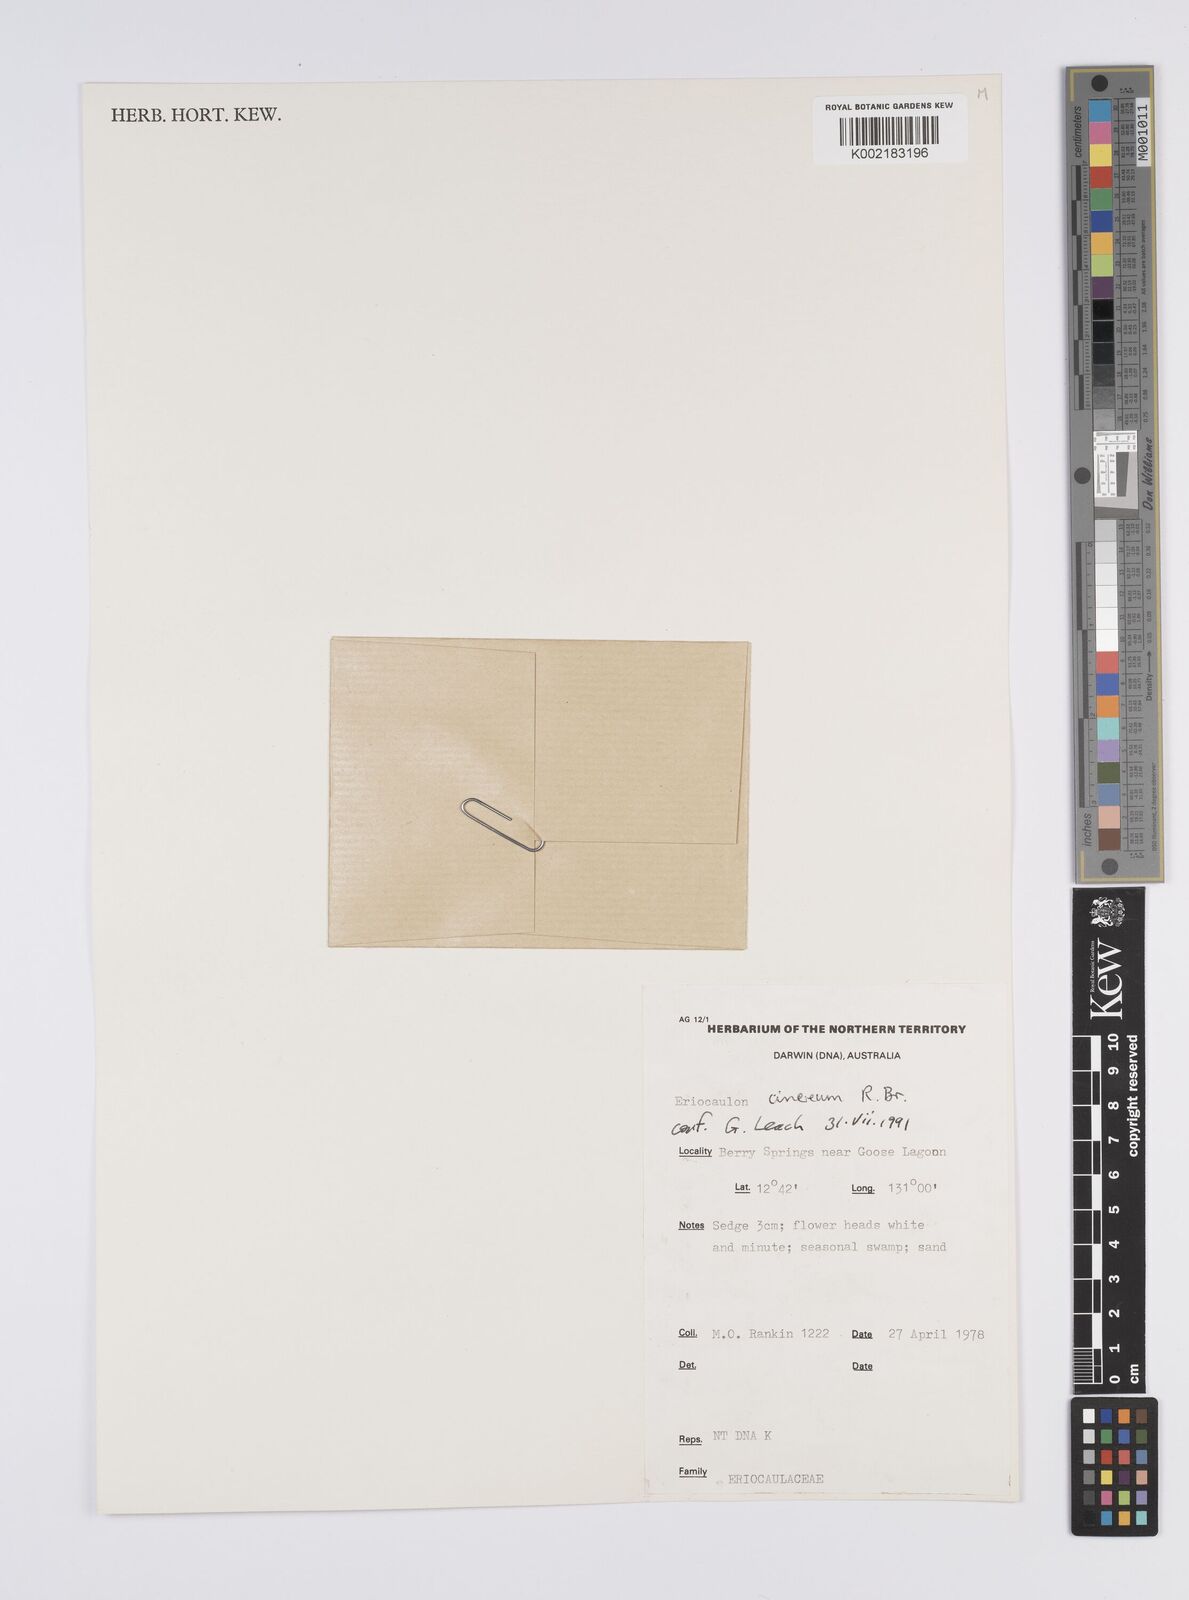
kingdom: Plantae
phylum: Tracheophyta
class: Liliopsida
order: Poales
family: Eriocaulaceae
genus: Eriocaulon
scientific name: Eriocaulon cinereum
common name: Ashy pipewort
